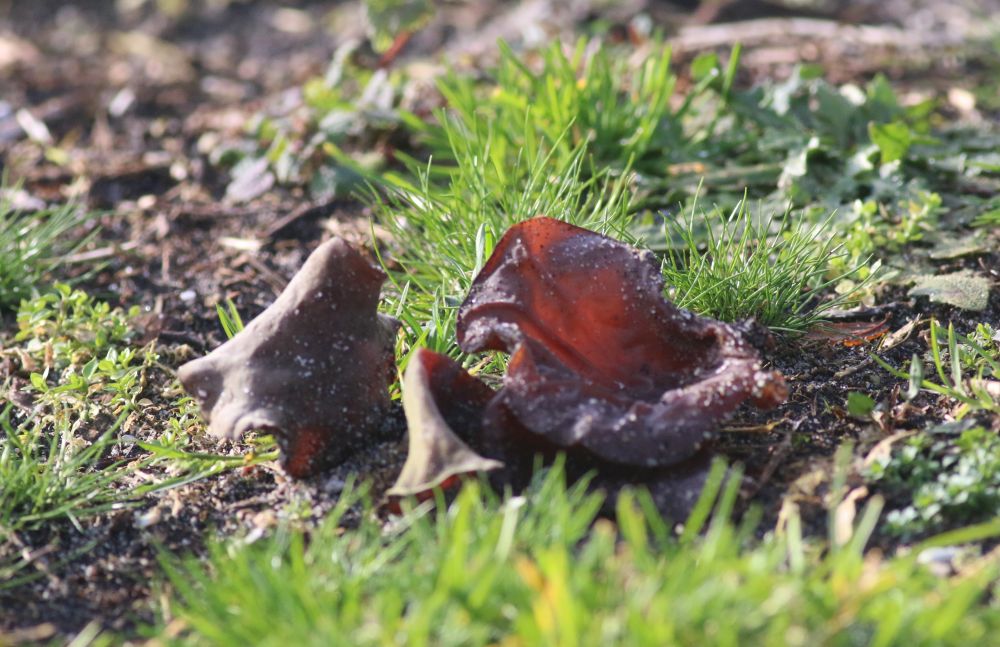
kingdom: Fungi
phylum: Basidiomycota
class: Agaricomycetes
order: Auriculariales
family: Auriculariaceae
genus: Auricularia
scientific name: Auricularia auricula-judae
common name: almindelig judasøre
